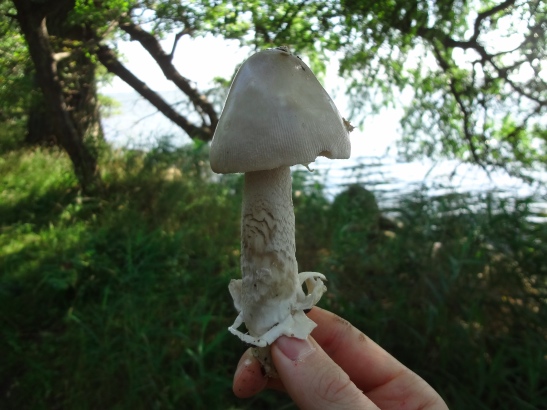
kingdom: Fungi
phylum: Basidiomycota
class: Agaricomycetes
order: Agaricales
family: Amanitaceae
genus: Amanita
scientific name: Amanita simulans
